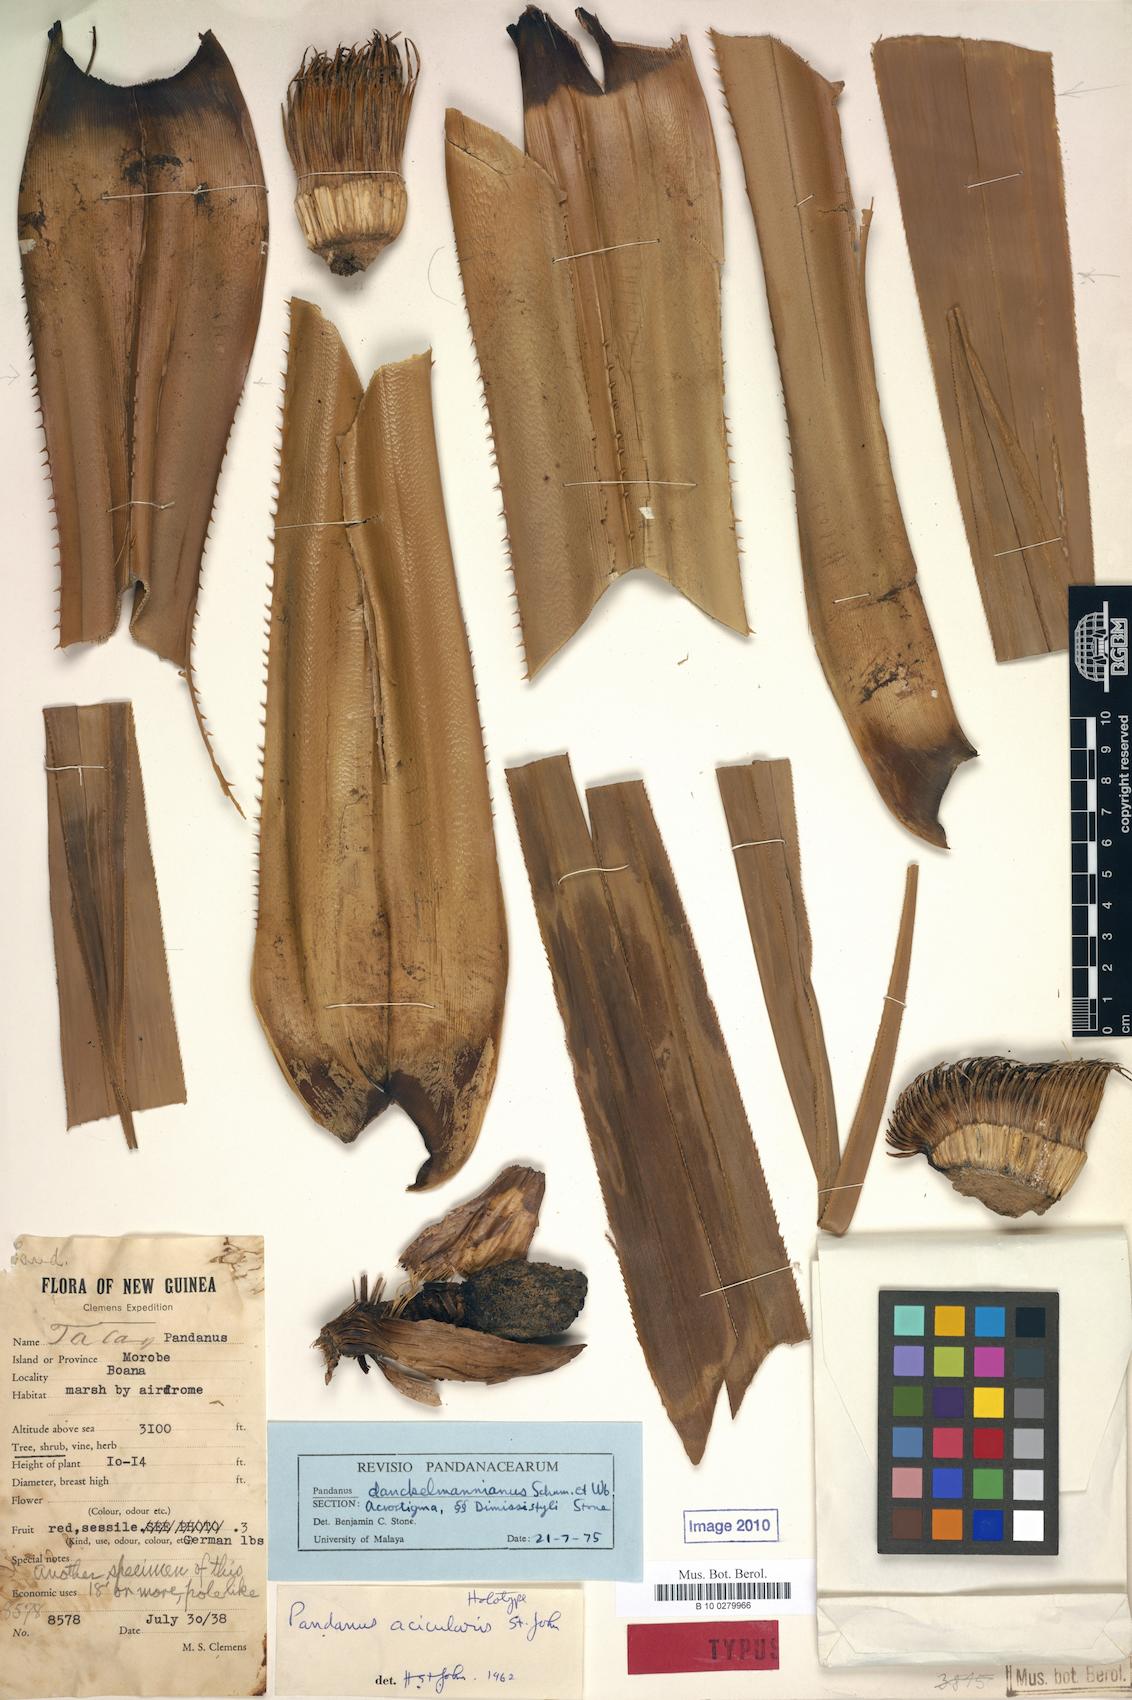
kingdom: Plantae
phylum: Tracheophyta
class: Liliopsida
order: Pandanales
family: Pandanaceae
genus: Benstonea
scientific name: Benstonea stenocarpa
